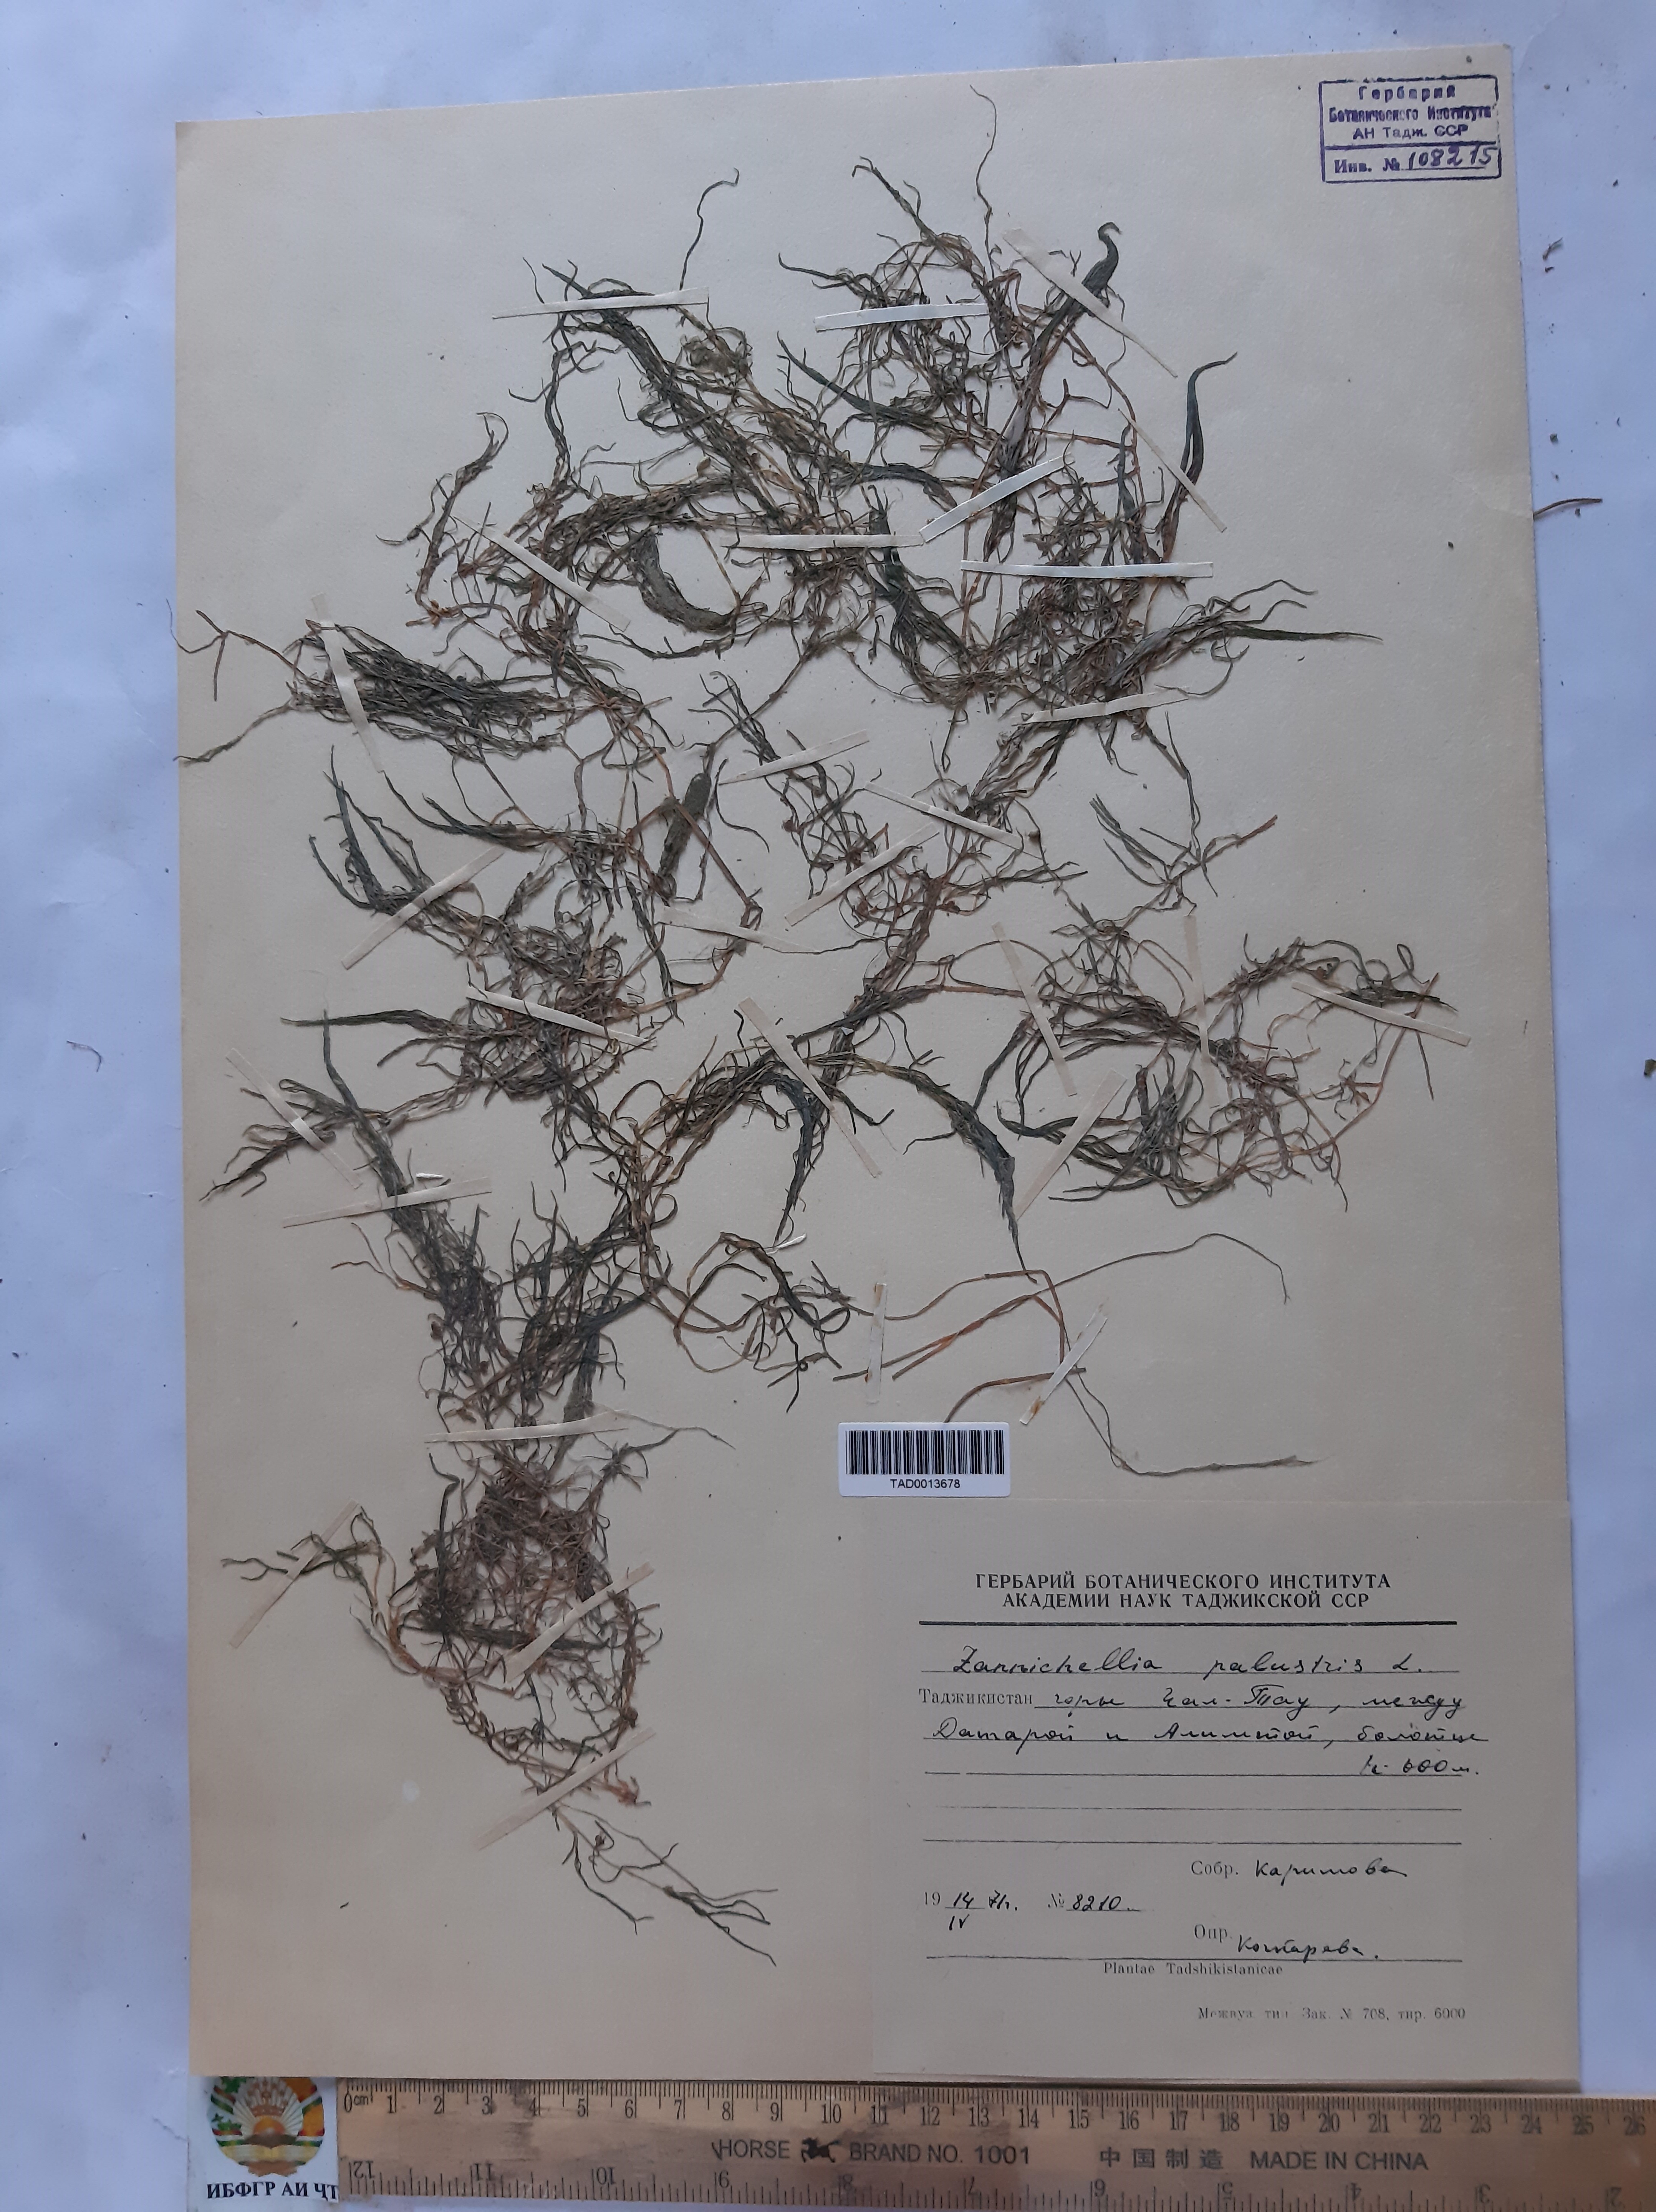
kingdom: Plantae
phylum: Tracheophyta
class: Liliopsida
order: Alismatales
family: Potamogetonaceae
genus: Zannichellia
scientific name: Zannichellia palustris
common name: Horned pondweed
